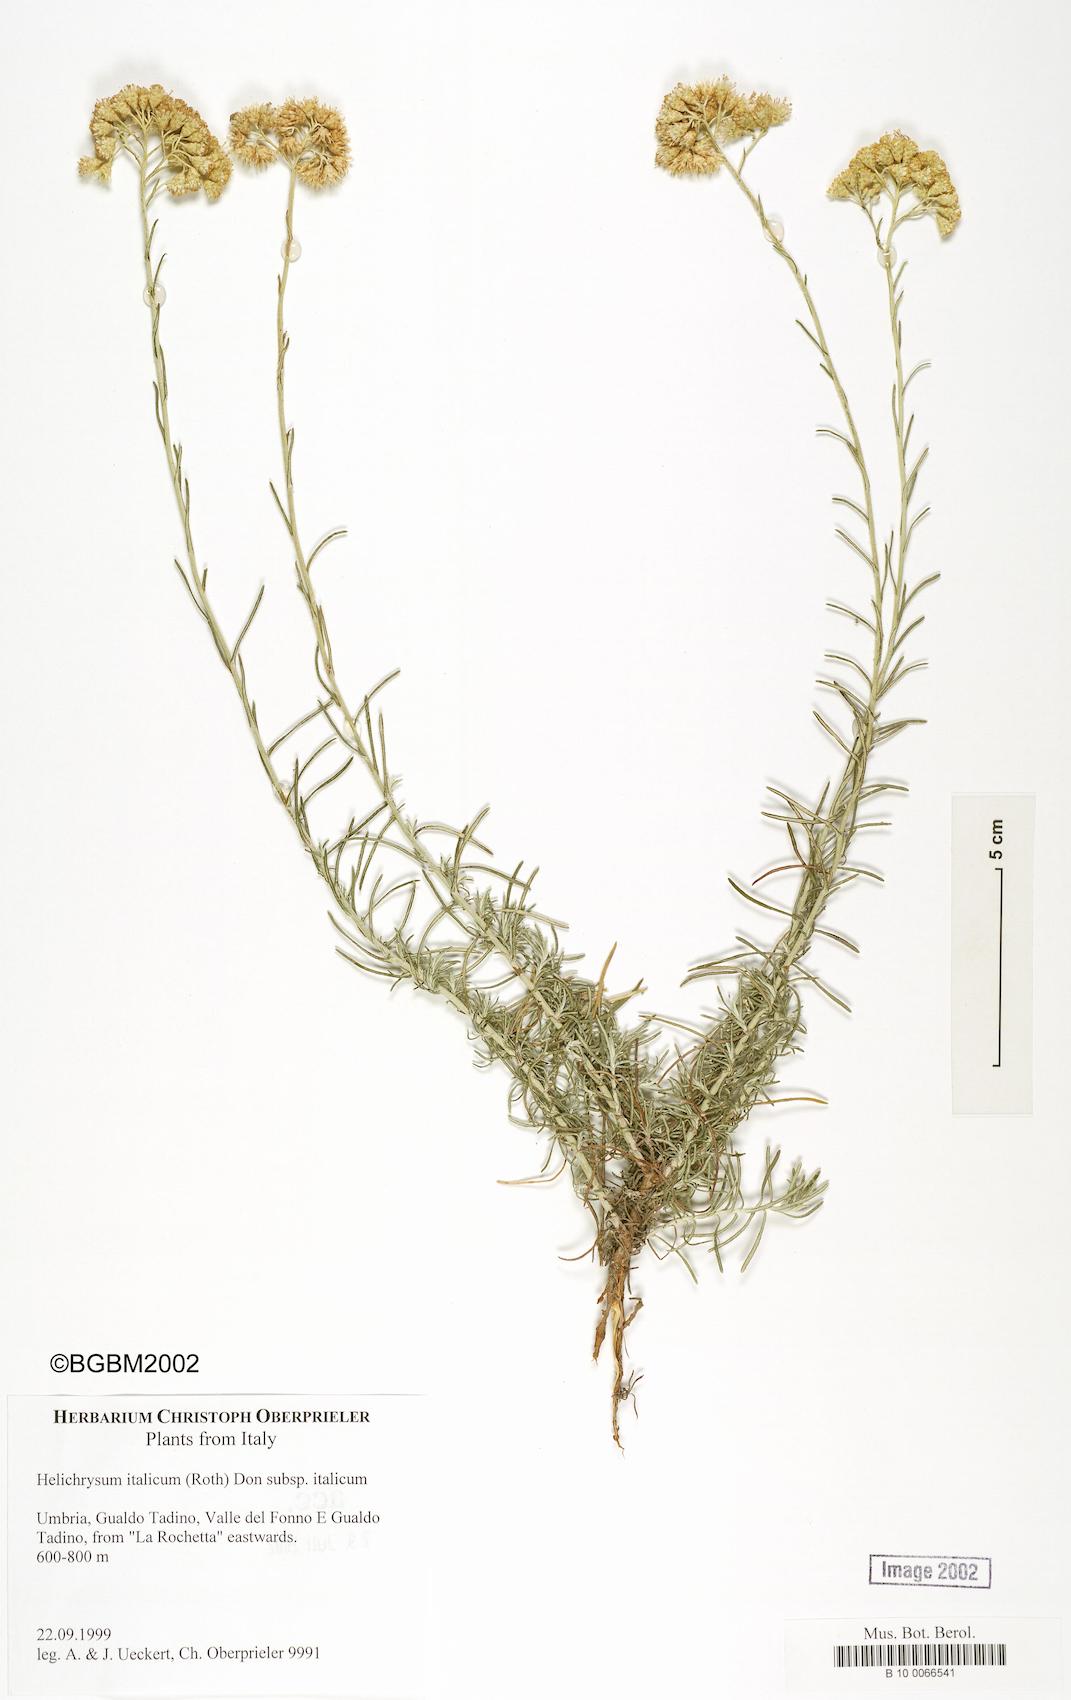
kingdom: Plantae
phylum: Tracheophyta
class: Magnoliopsida
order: Asterales
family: Asteraceae
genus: Helichrysum
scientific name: Helichrysum italicum
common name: Curryplant
